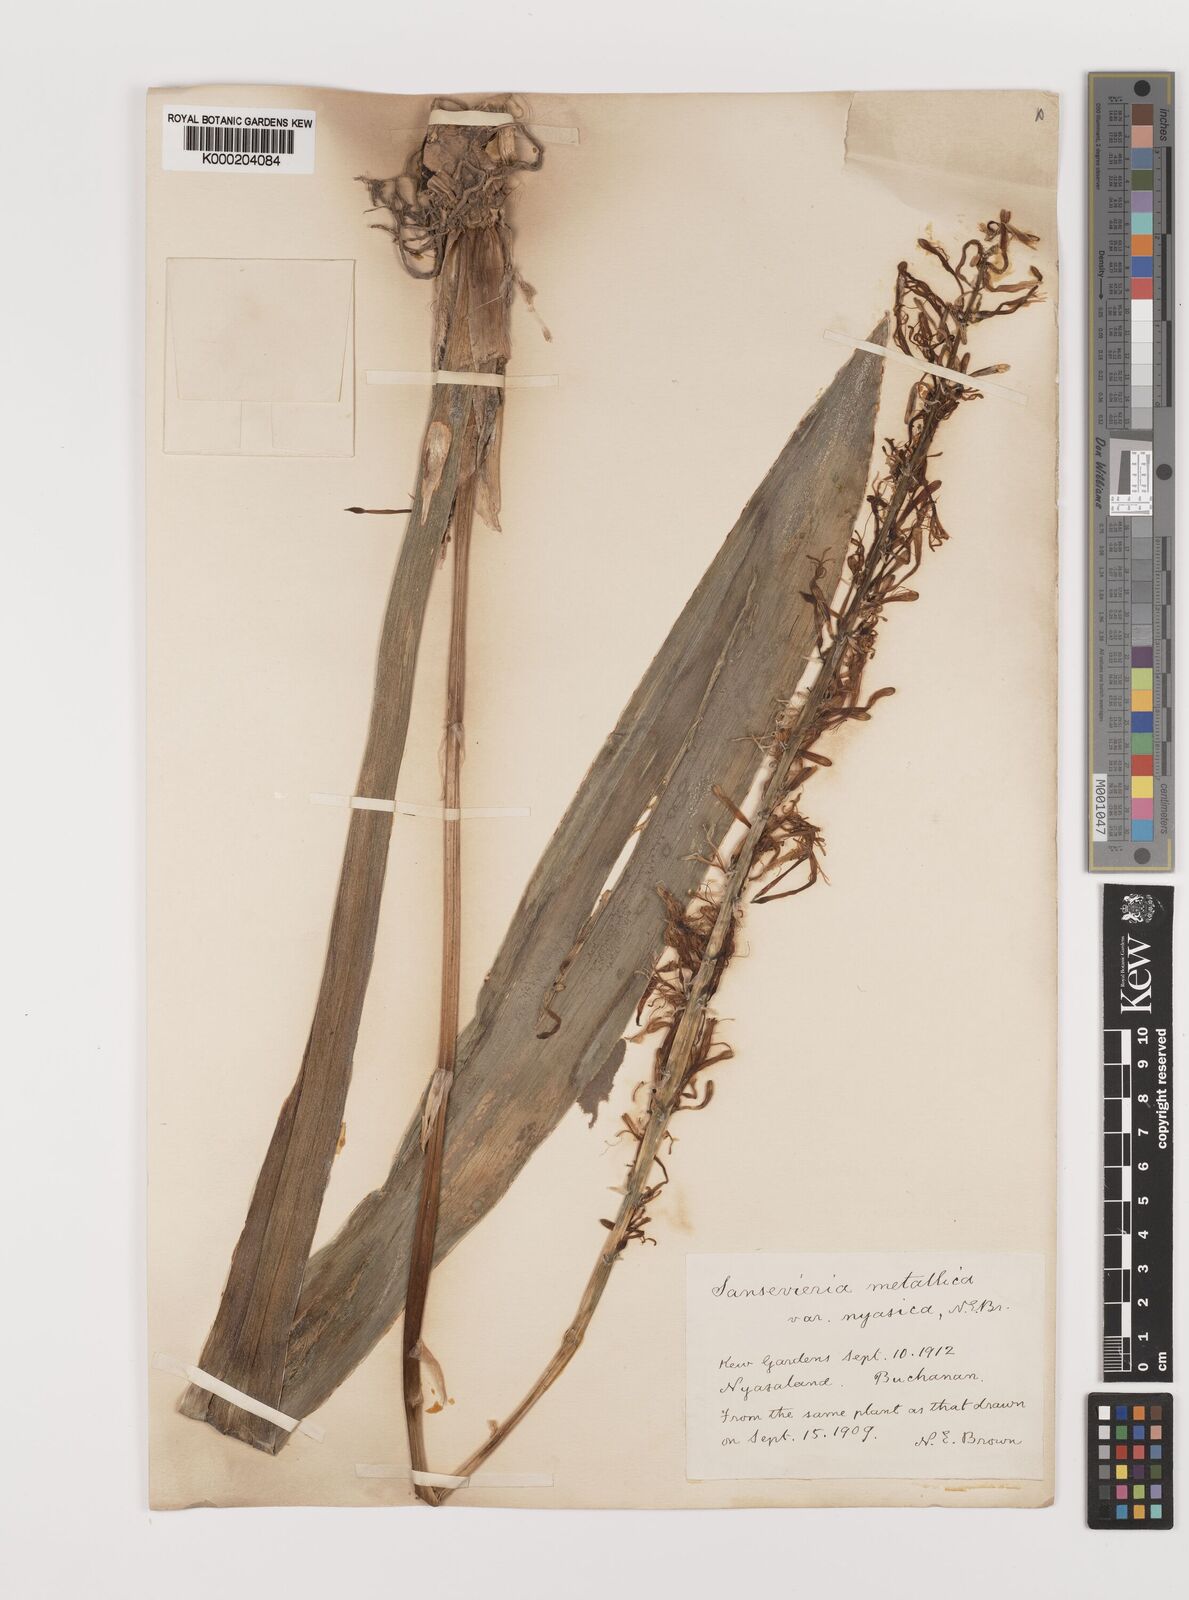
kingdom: Plantae
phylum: Tracheophyta
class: Liliopsida
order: Asparagales
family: Asparagaceae
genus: Dracaena
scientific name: Dracaena
